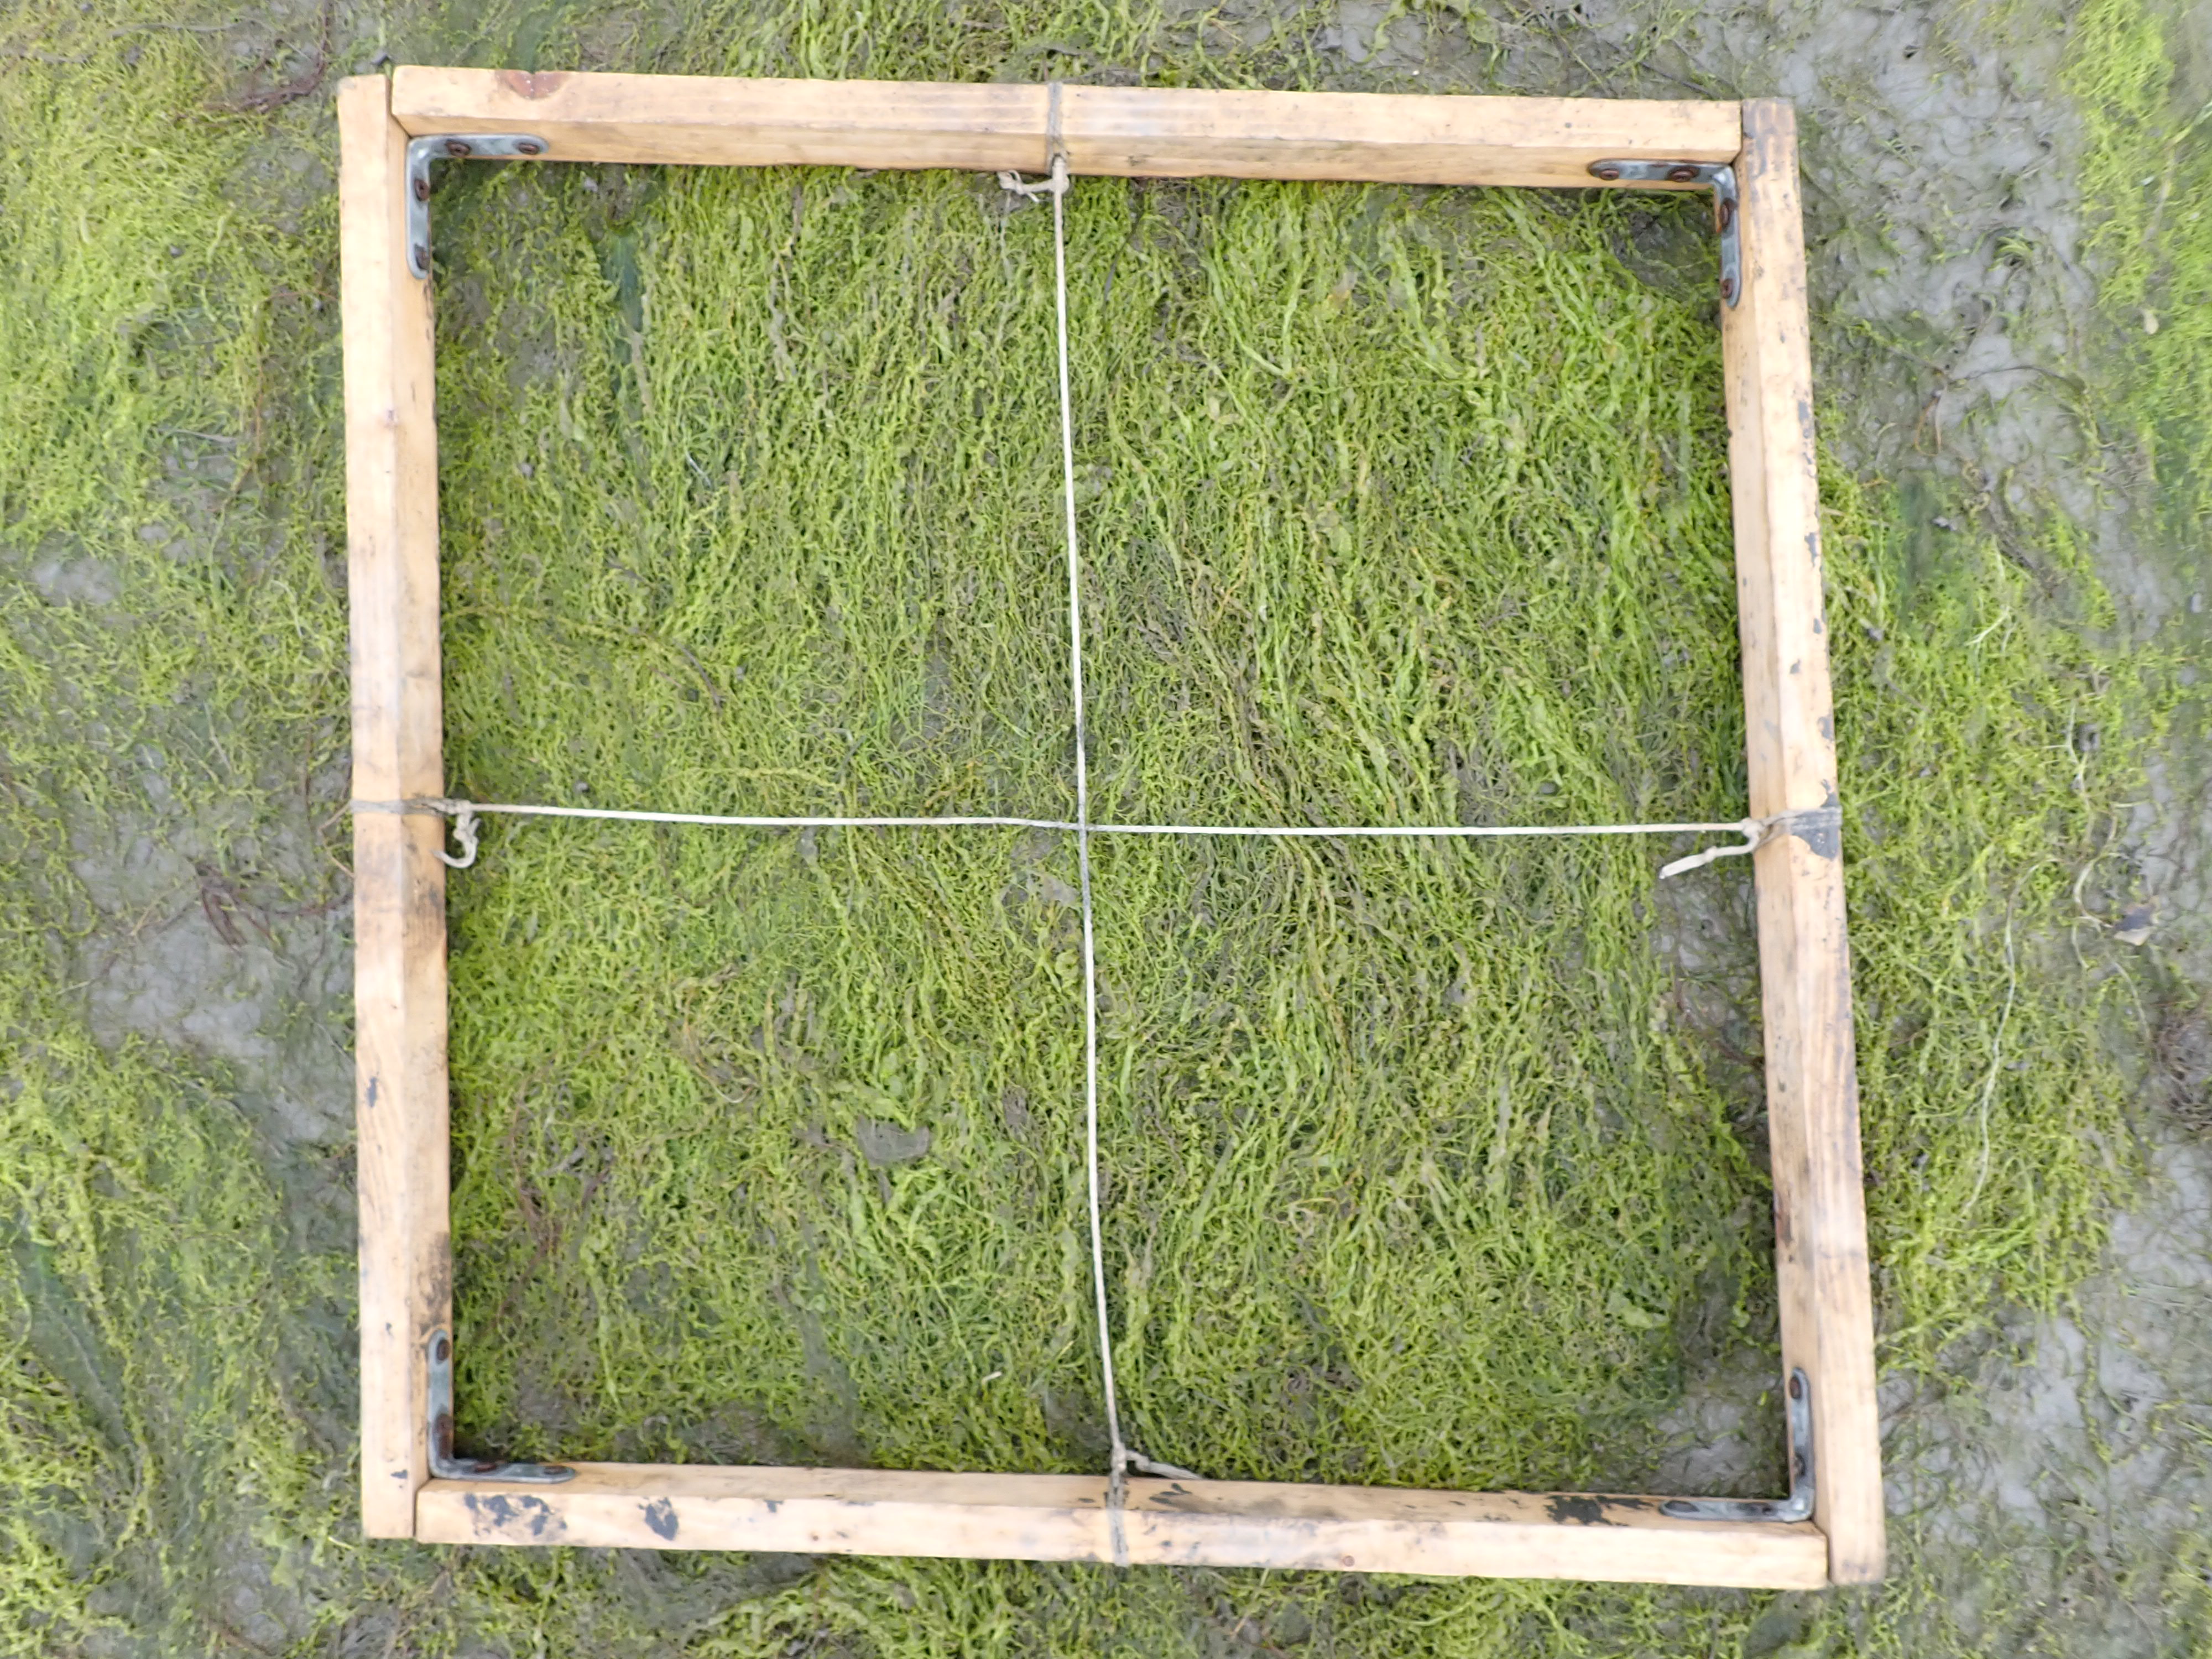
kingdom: Plantae
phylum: Chlorophyta
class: Ulvophyceae
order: Ulvales
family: Ulvaceae
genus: Ulva
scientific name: Ulva
